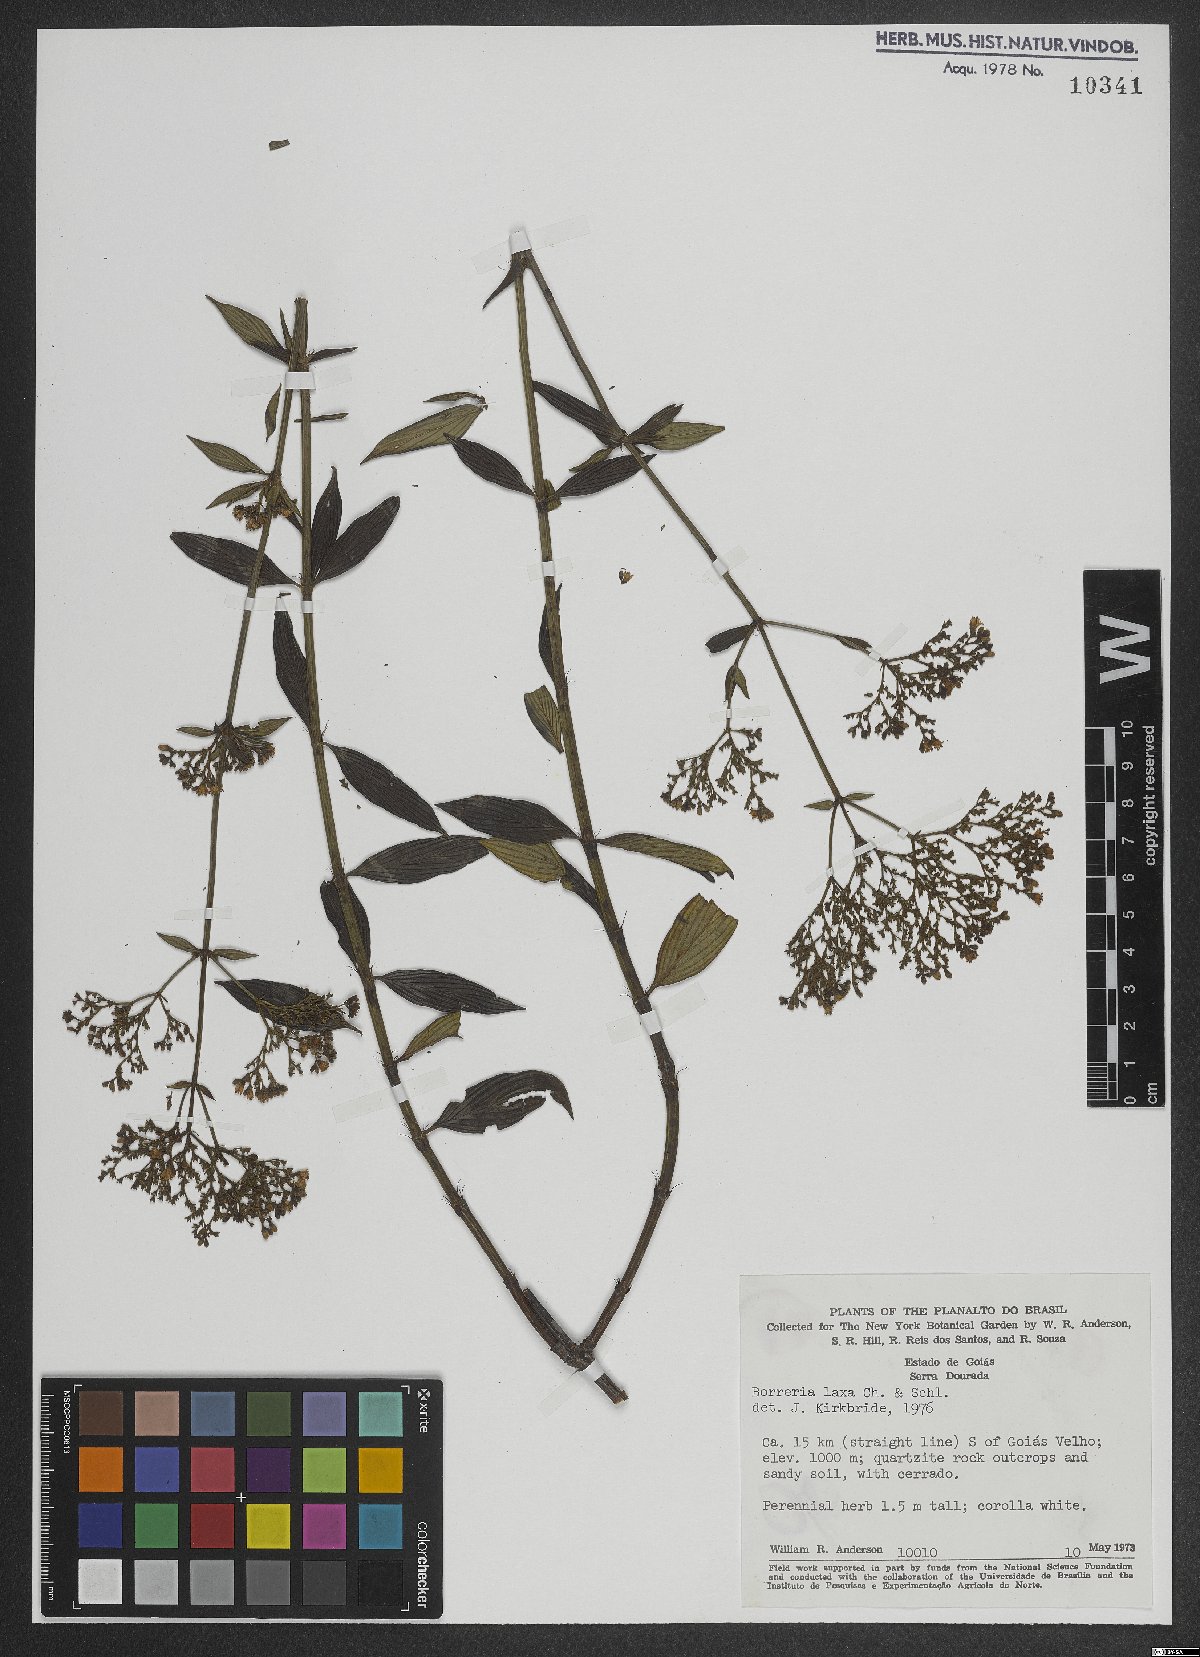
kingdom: Plantae
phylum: Tracheophyta
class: Magnoliopsida
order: Gentianales
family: Rubiaceae
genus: Galianthe
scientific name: Galianthe laxa
